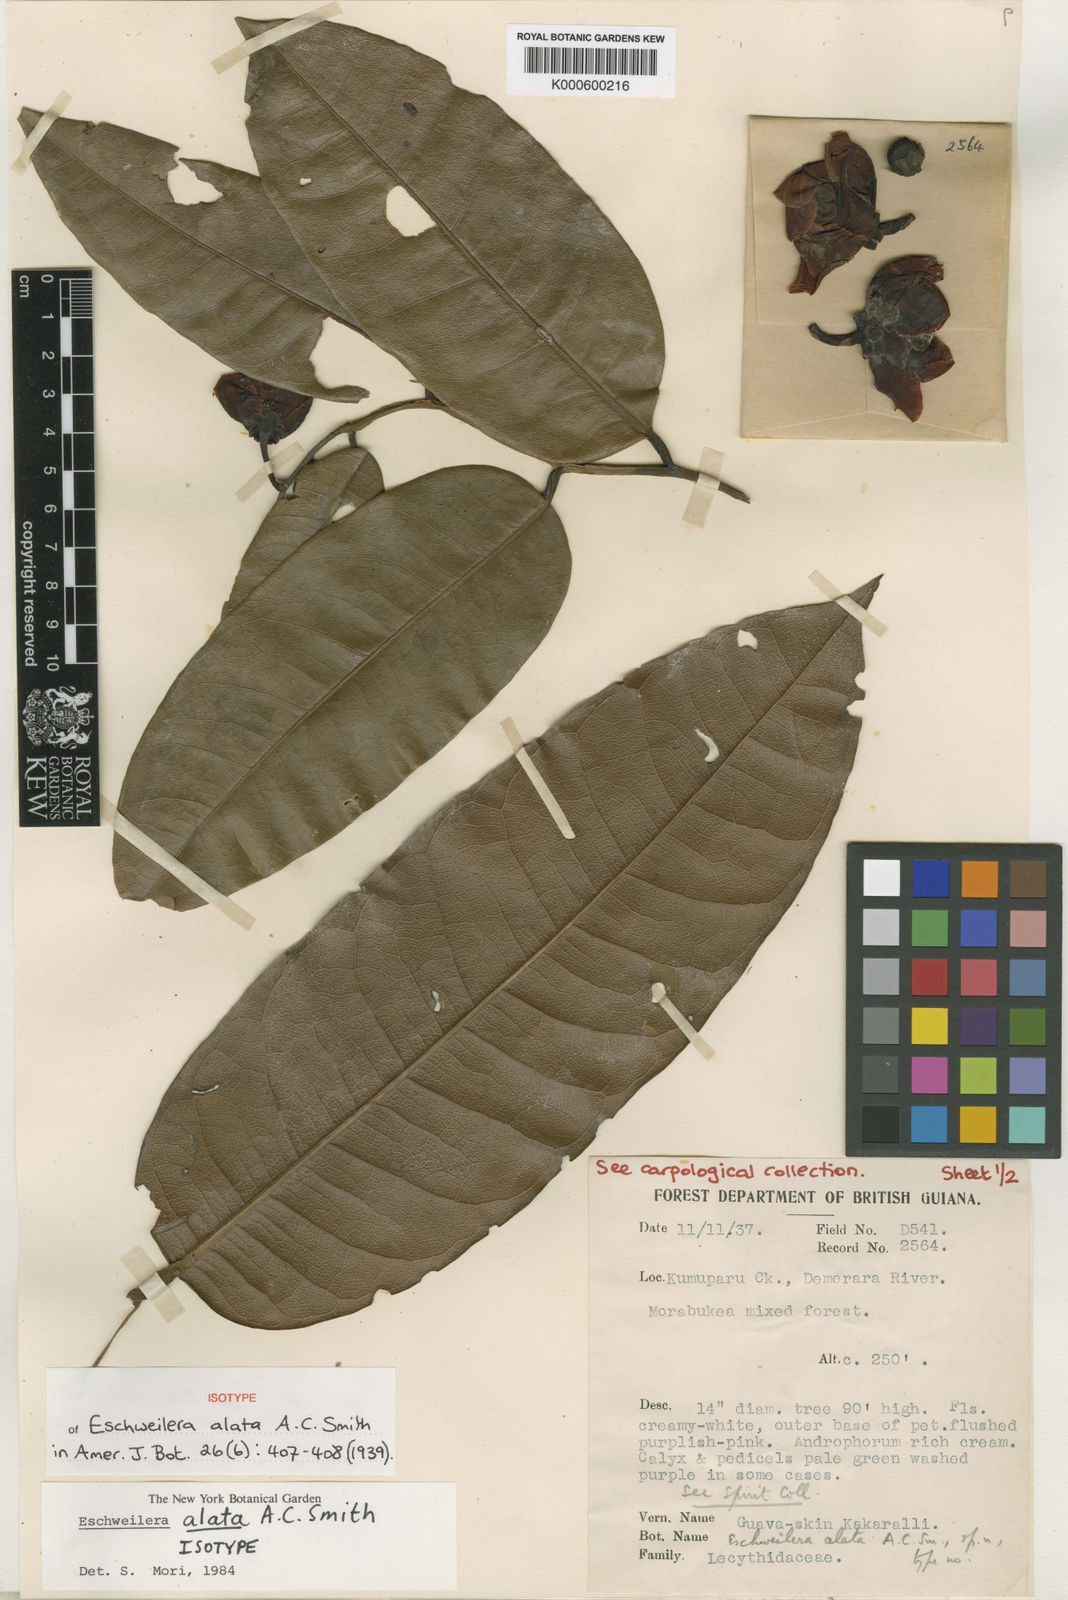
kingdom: Plantae
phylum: Tracheophyta
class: Magnoliopsida
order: Ericales
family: Lecythidaceae
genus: Eschweilera
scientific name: Eschweilera alata
